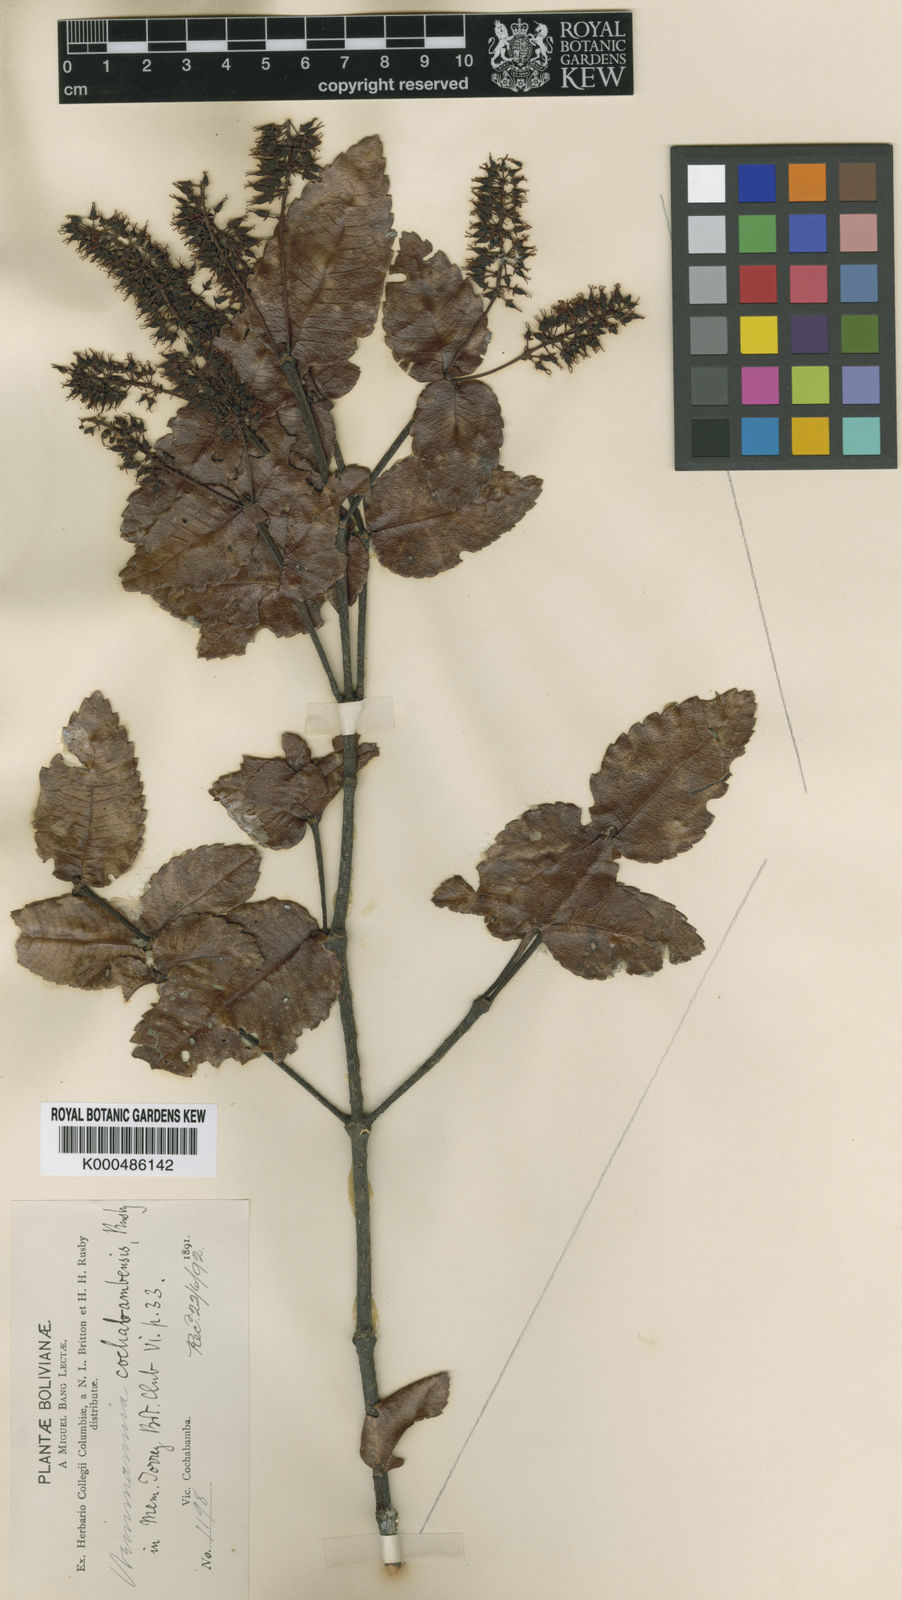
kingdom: Plantae
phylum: Tracheophyta
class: Magnoliopsida
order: Oxalidales
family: Cunoniaceae
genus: Weinmannia
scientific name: Weinmannia cordata
